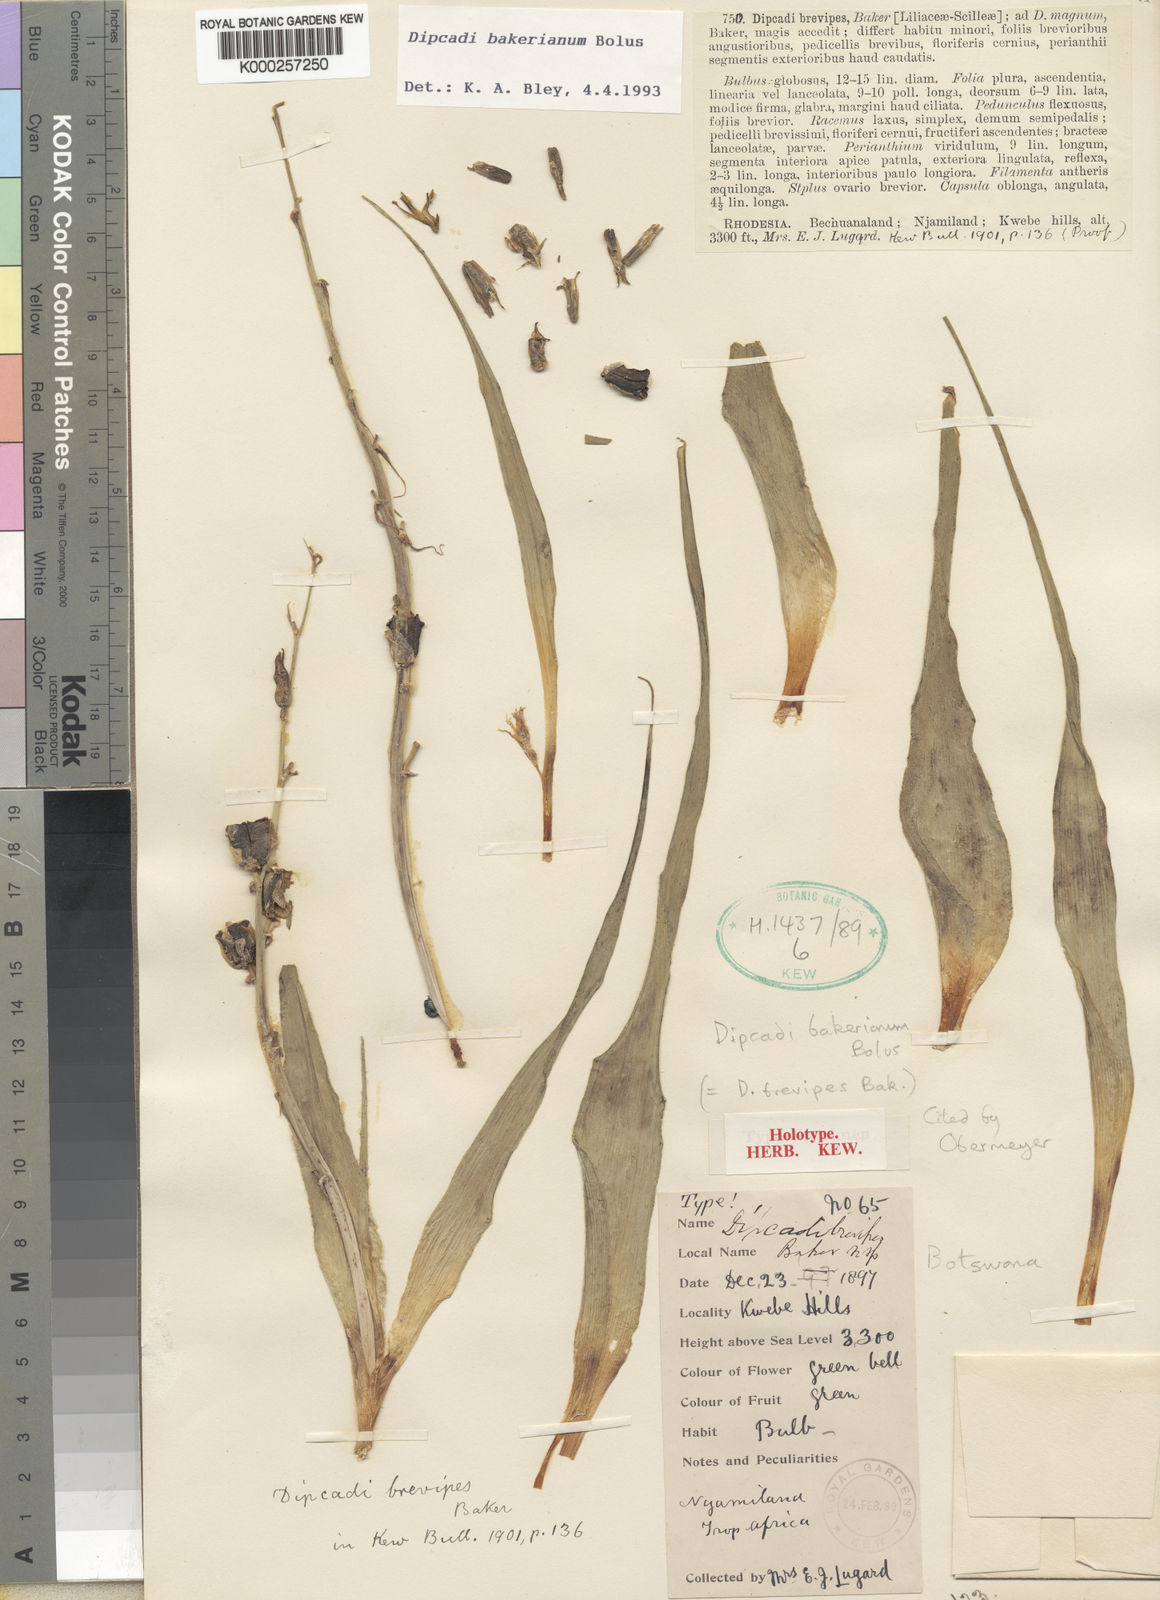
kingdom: Plantae
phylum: Tracheophyta
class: Liliopsida
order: Asparagales
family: Asparagaceae
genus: Dipcadi
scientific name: Dipcadi bakerianum
